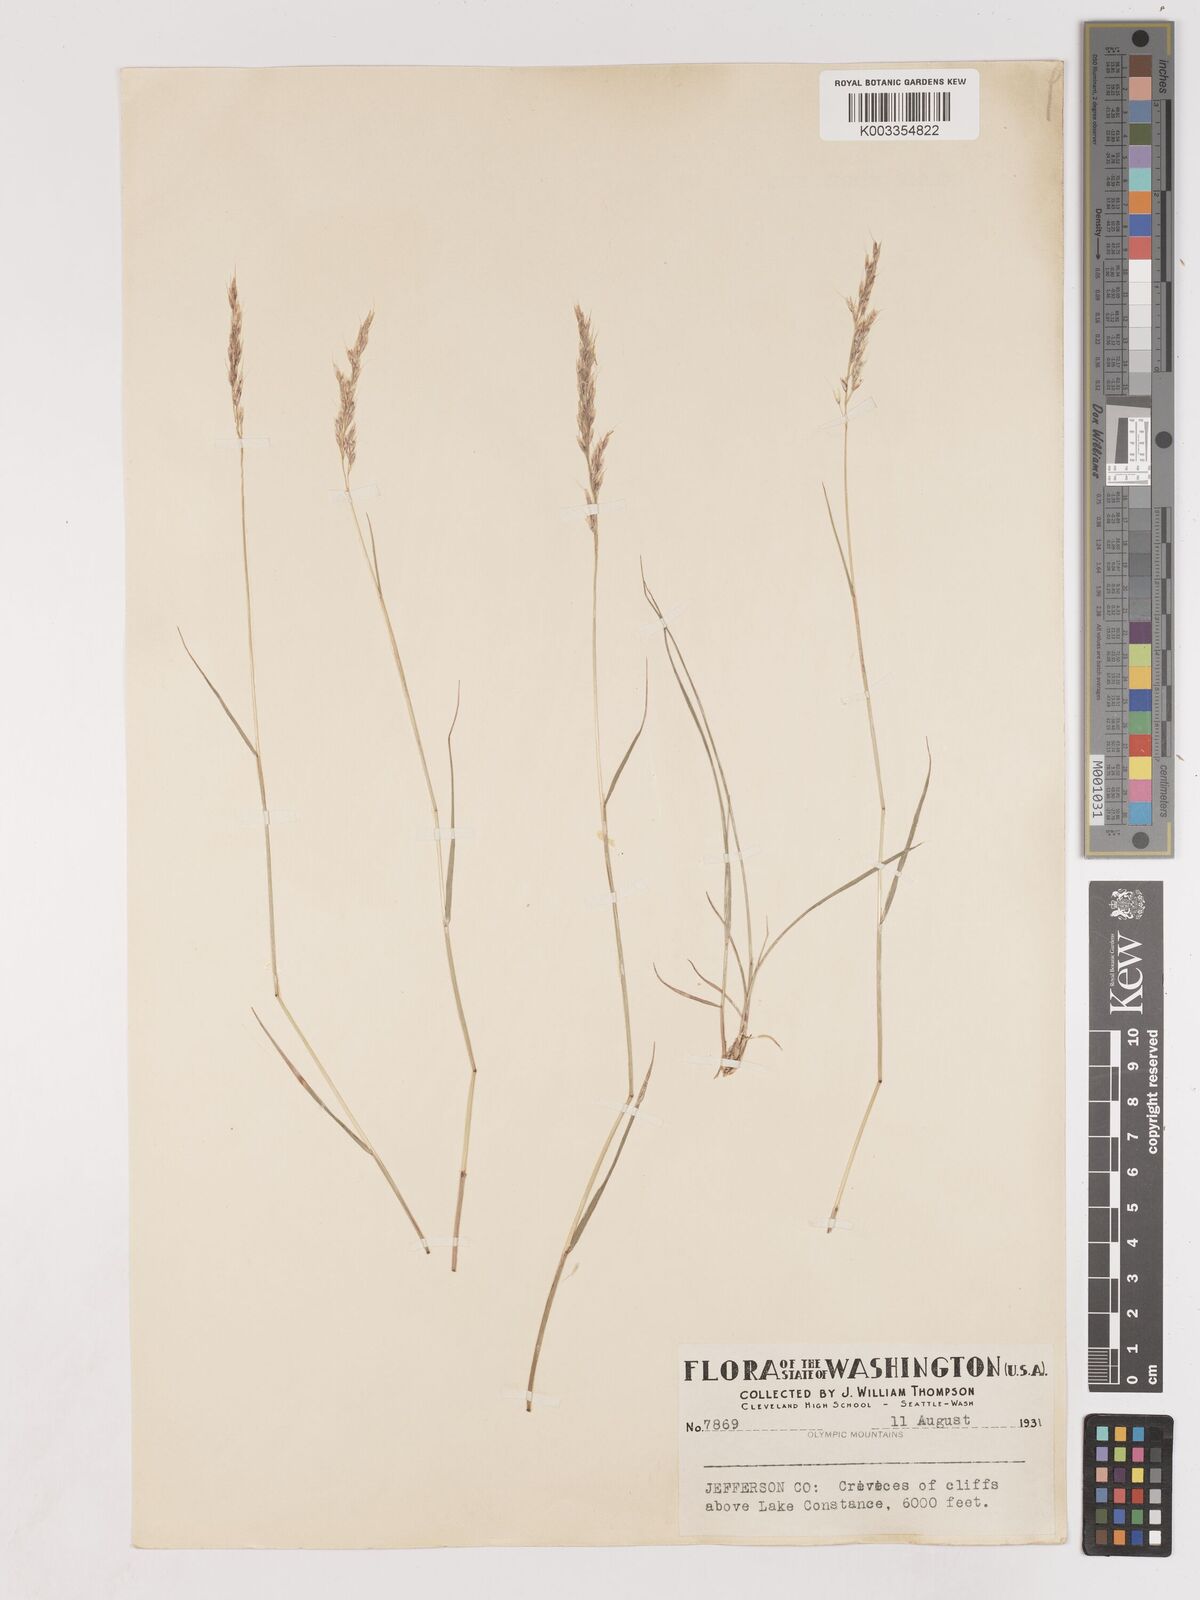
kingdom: Plantae
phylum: Tracheophyta
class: Liliopsida
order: Poales
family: Poaceae
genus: Calamagrostis
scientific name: Calamagrostis
